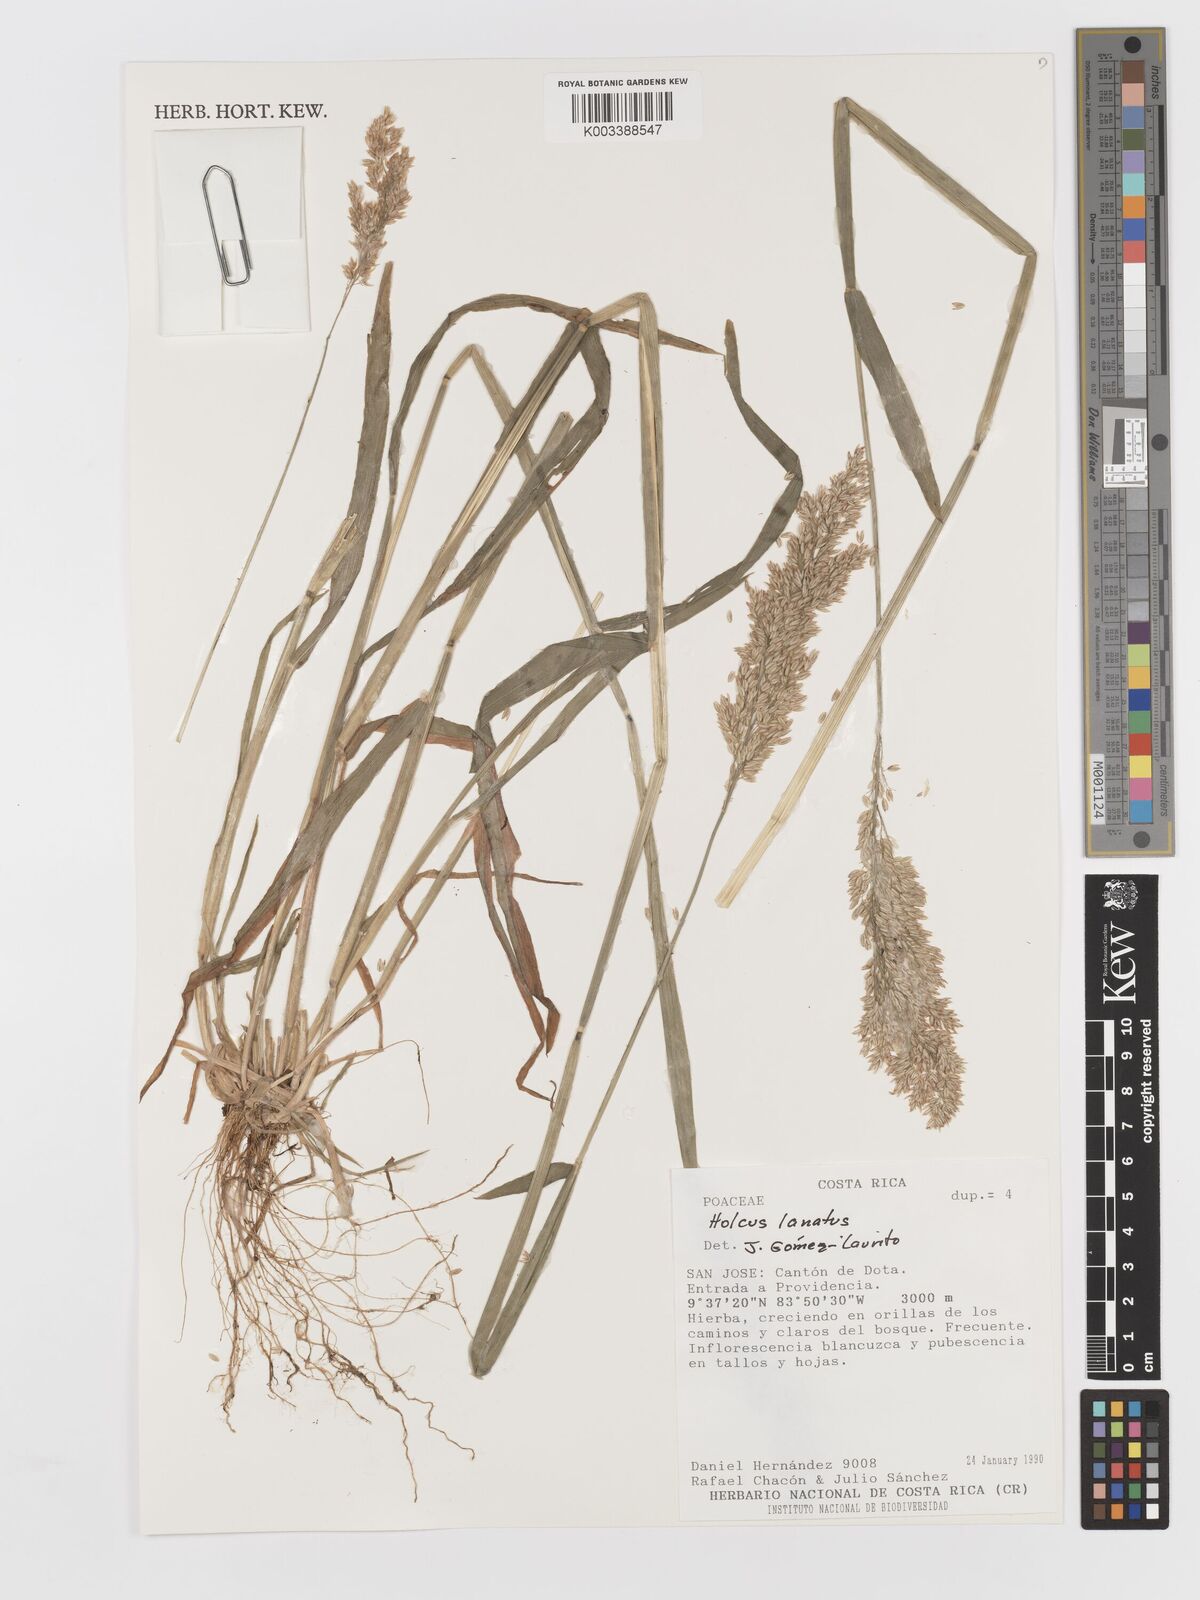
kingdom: Plantae
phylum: Tracheophyta
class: Liliopsida
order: Poales
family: Poaceae
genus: Holcus
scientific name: Holcus lanatus
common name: Yorkshire-fog
